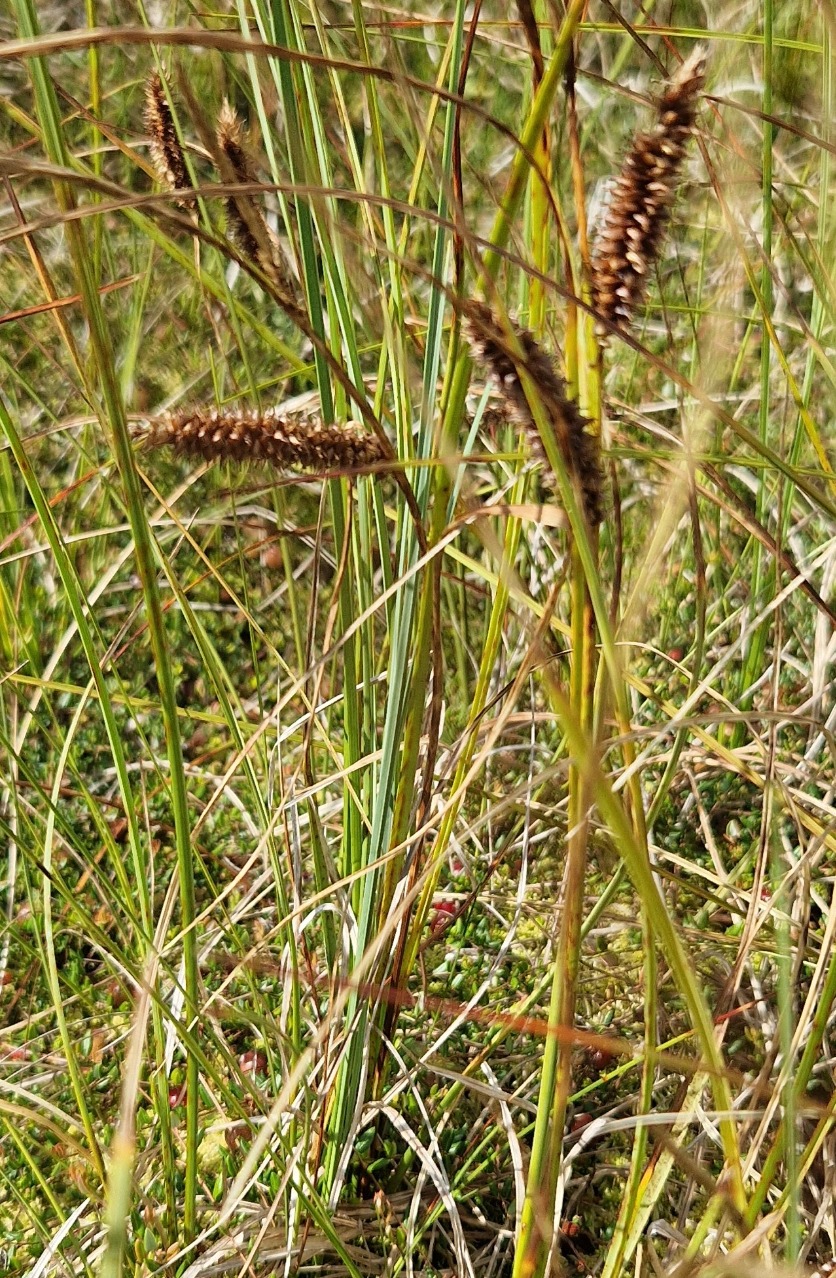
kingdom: Plantae
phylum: Tracheophyta
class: Liliopsida
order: Poales
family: Cyperaceae
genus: Carex
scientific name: Carex rostrata
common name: Næb-star
